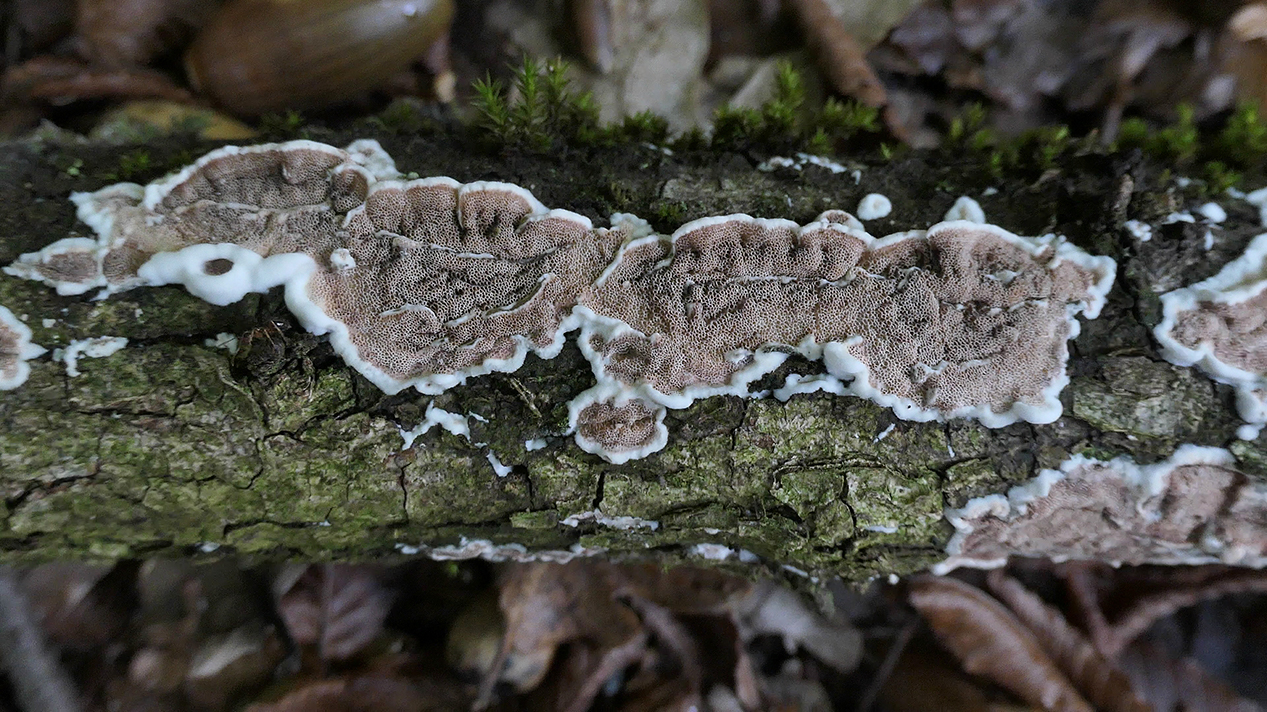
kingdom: Fungi
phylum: Basidiomycota
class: Agaricomycetes
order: Polyporales
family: Irpicaceae
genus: Vitreoporus
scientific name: Vitreoporus dichrous
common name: tofarvet foldporesvamp
